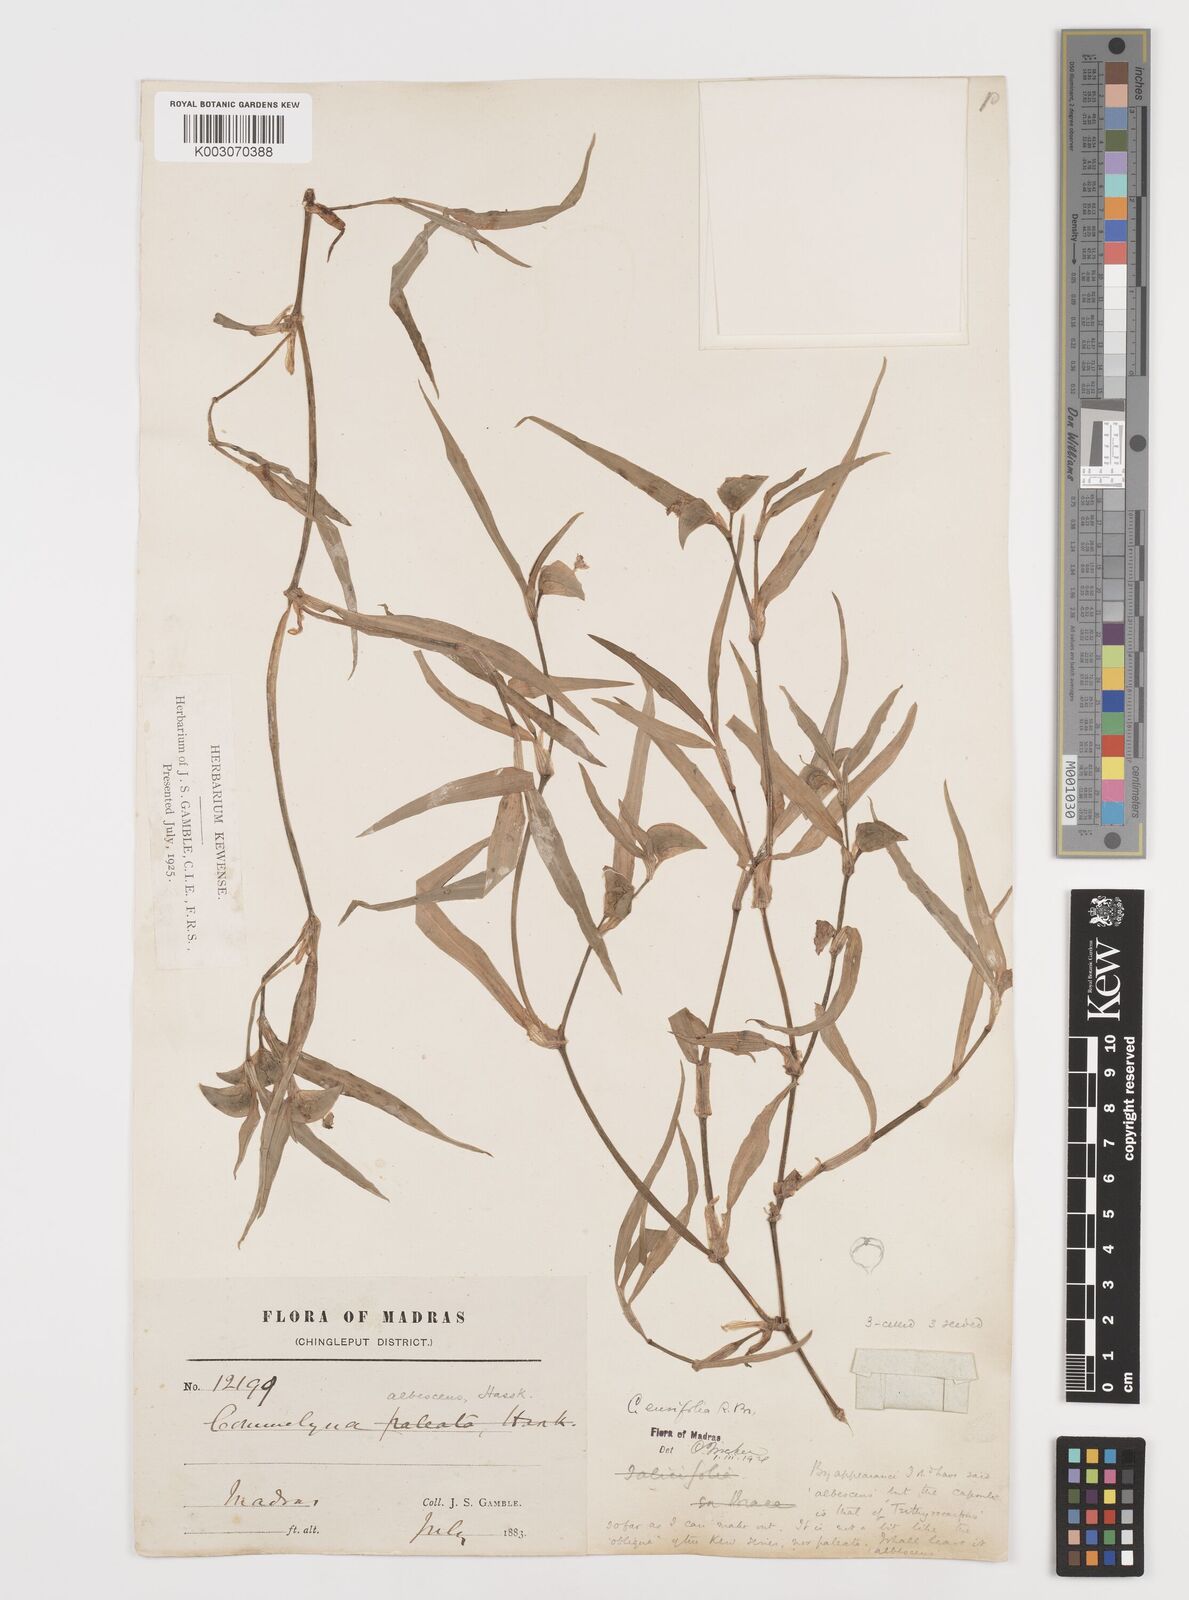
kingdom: Plantae
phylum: Tracheophyta
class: Liliopsida
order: Commelinales
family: Commelinaceae
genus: Commelina
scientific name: Commelina ensifolia
